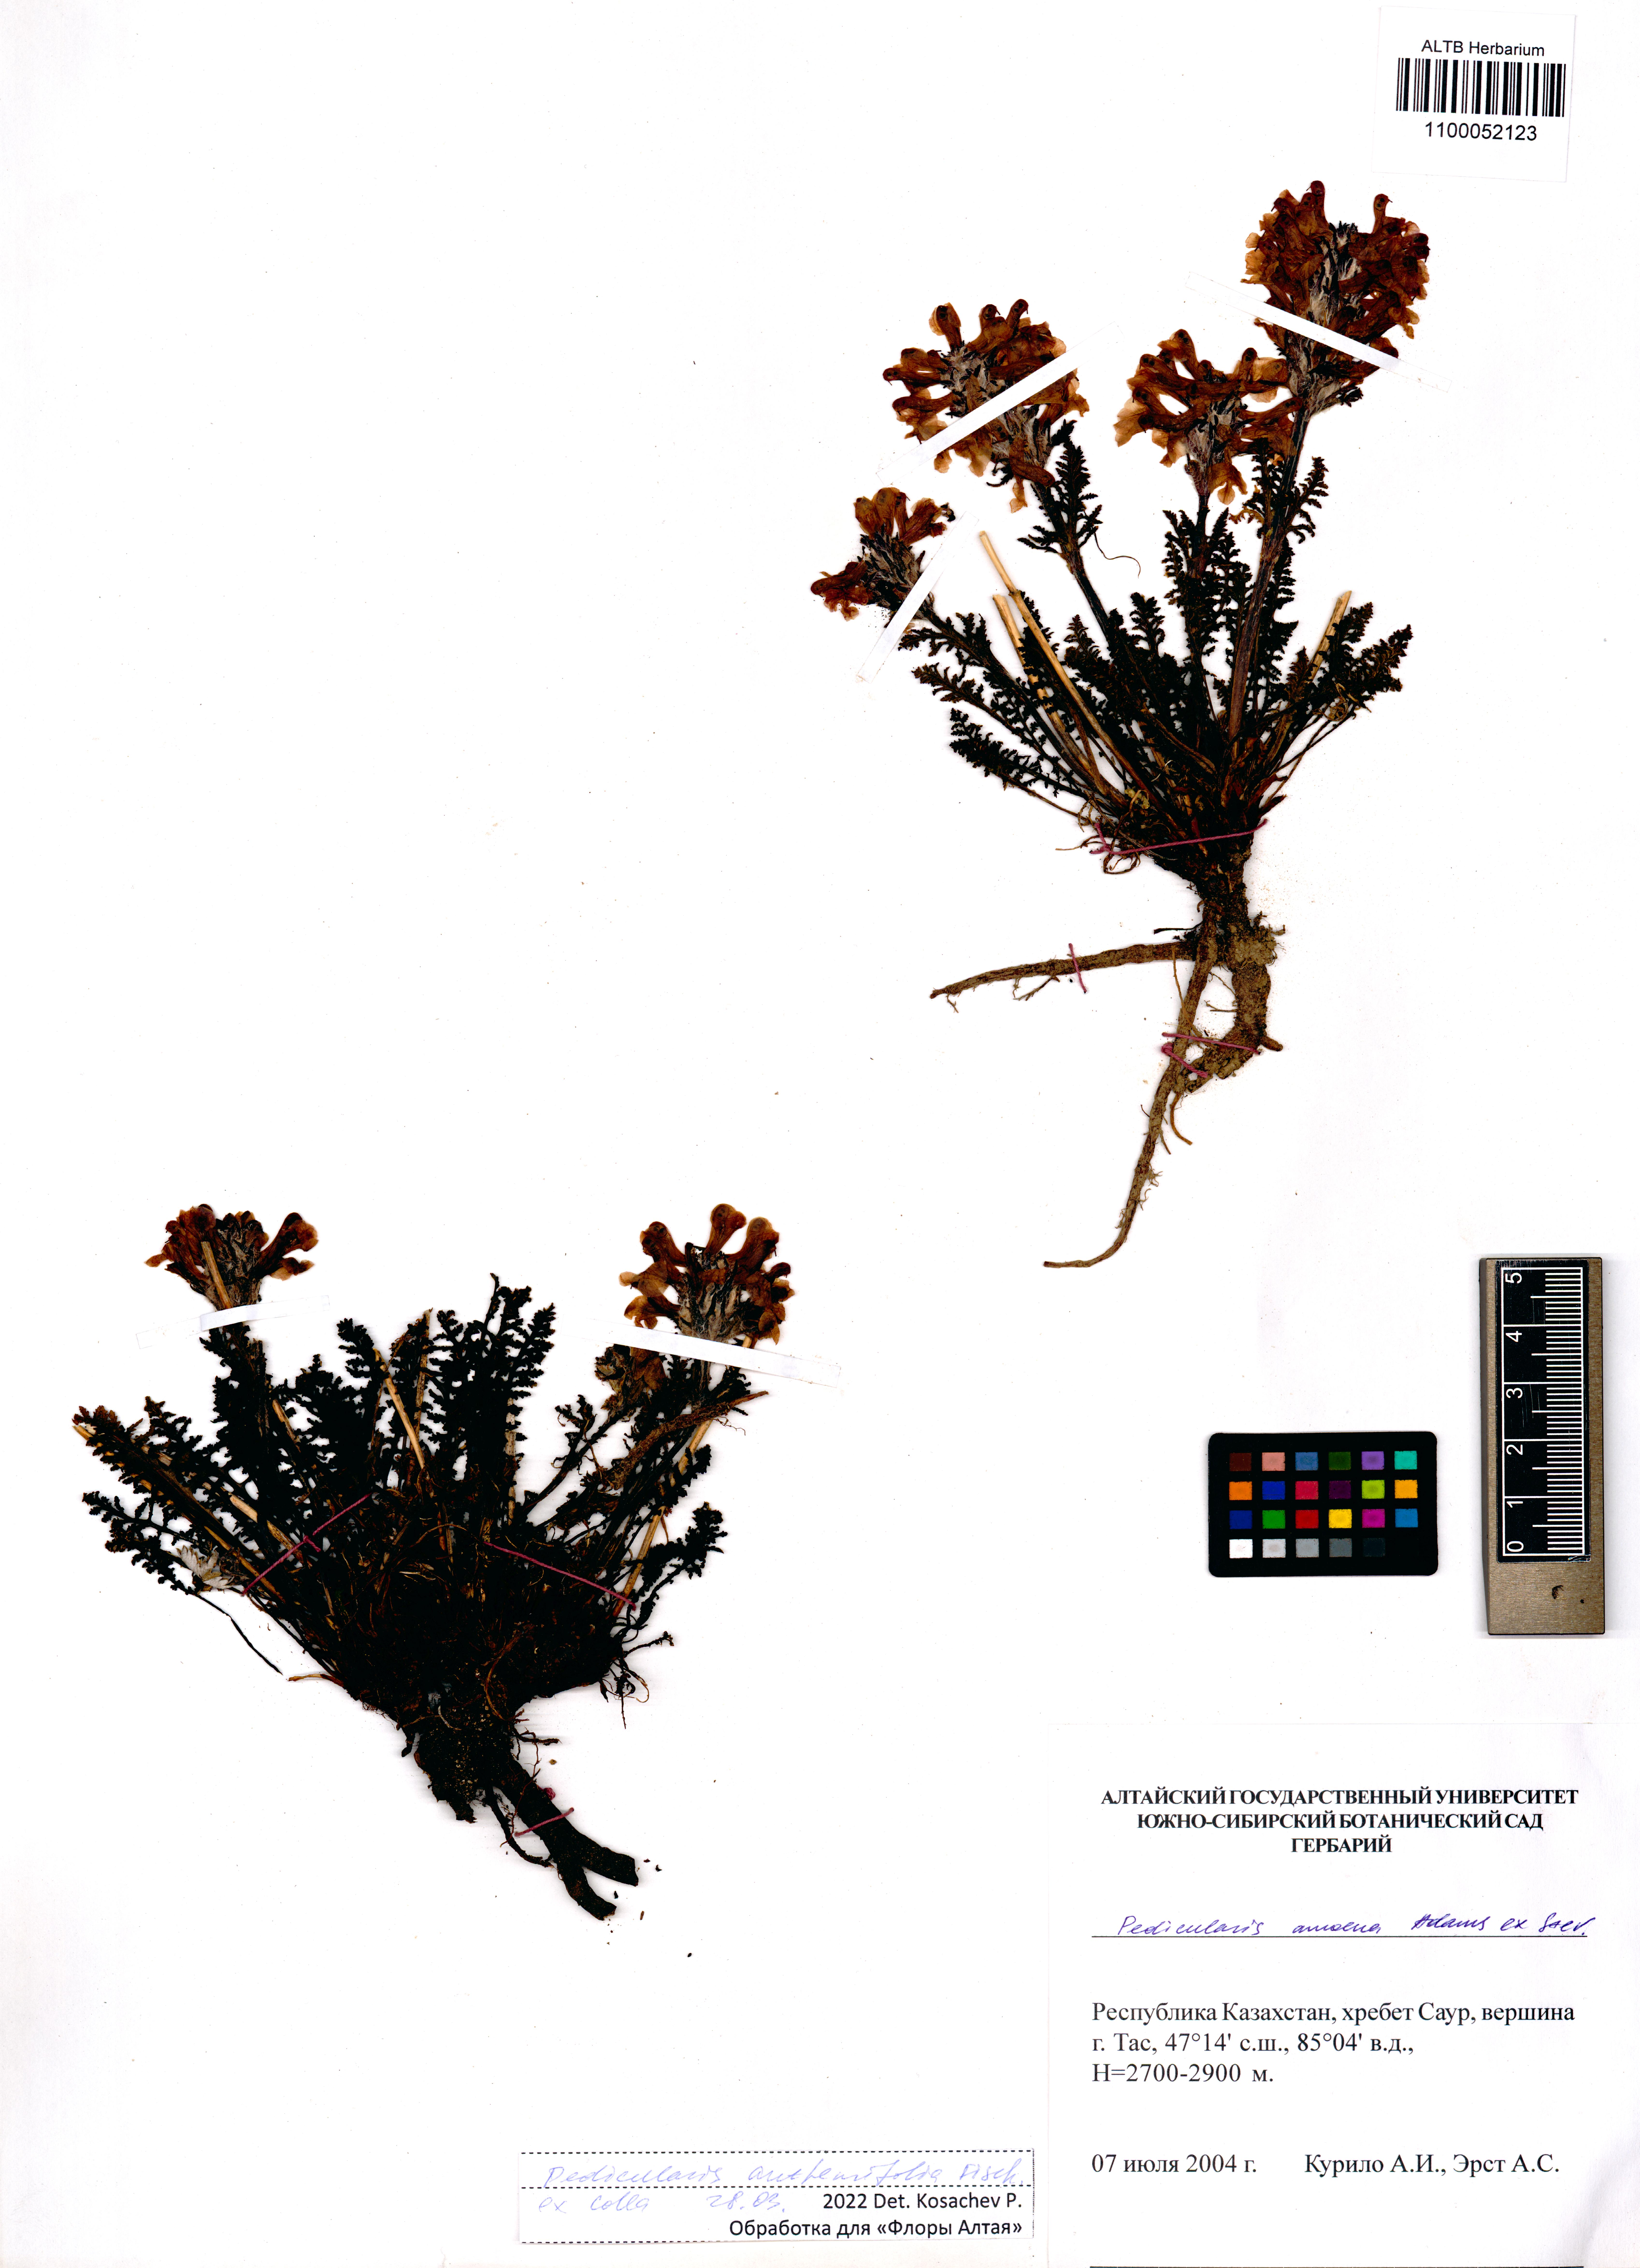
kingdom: Plantae
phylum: Tracheophyta
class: Magnoliopsida
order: Lamiales
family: Orobanchaceae
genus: Pedicularis
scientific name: Pedicularis anthemifolia
